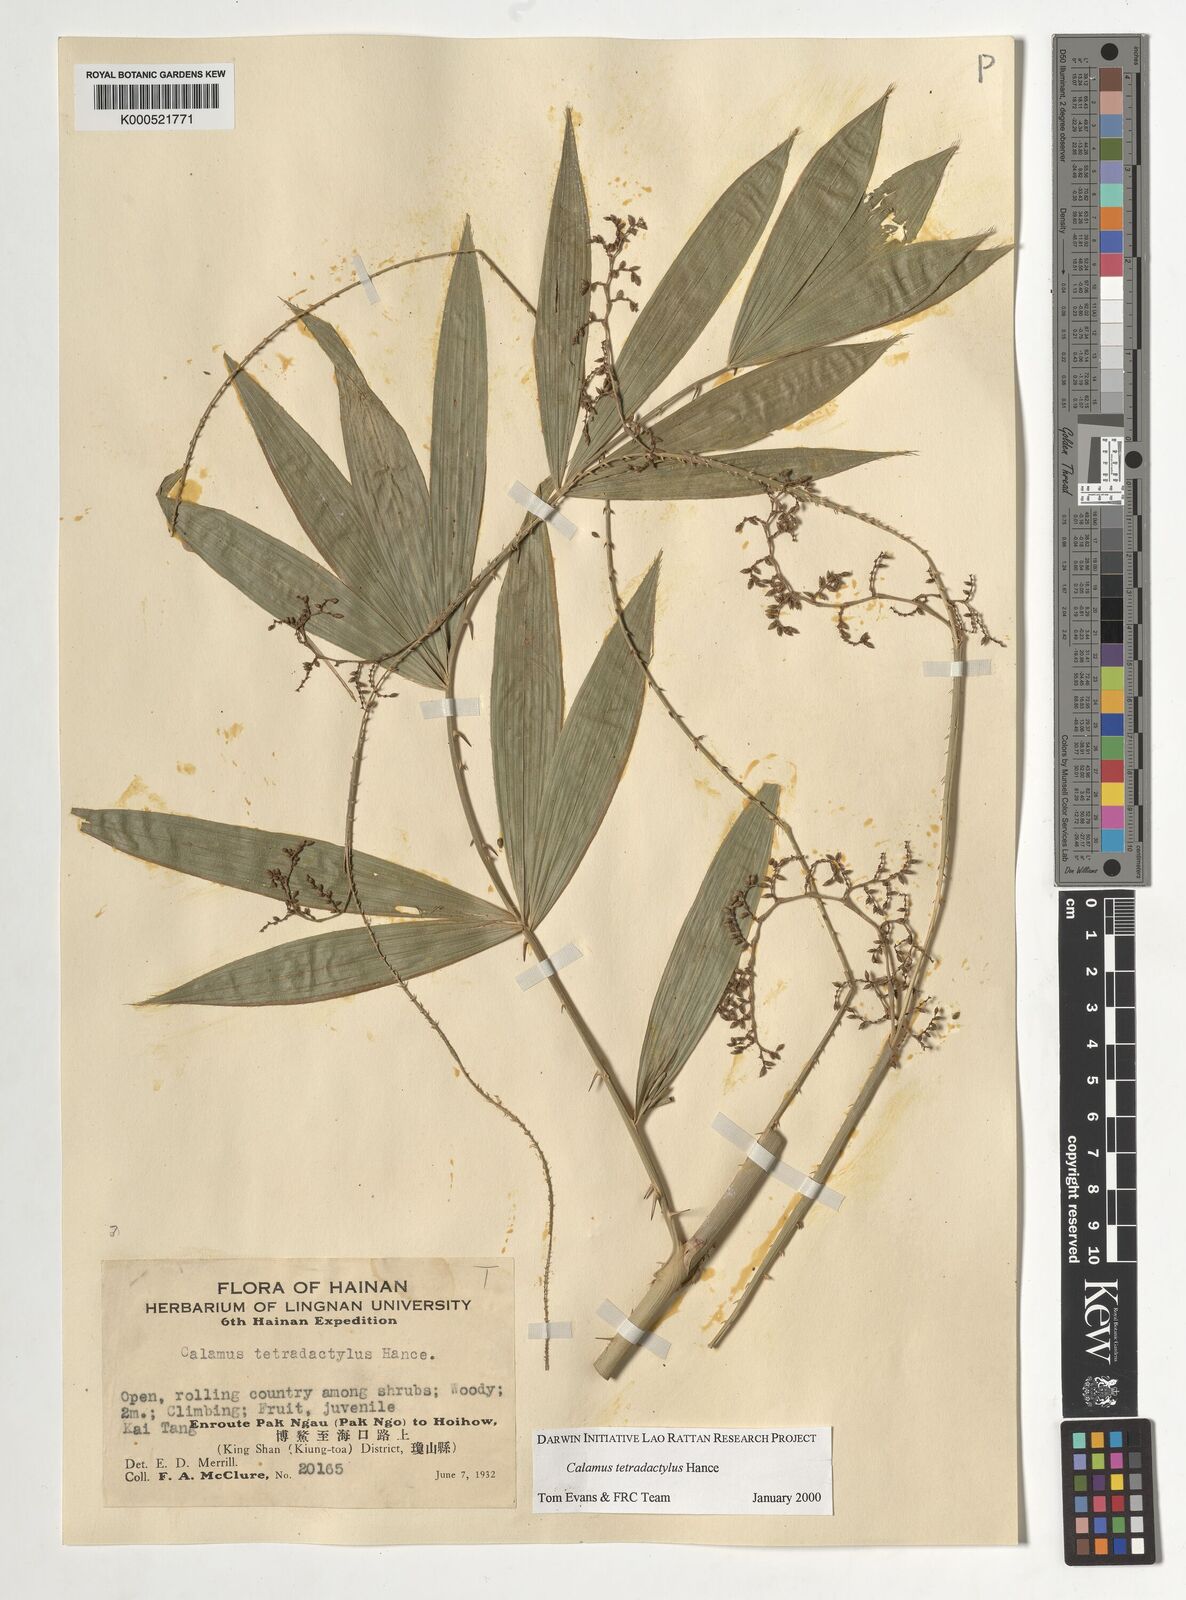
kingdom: Plantae
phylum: Tracheophyta
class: Liliopsida
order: Arecales
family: Arecaceae
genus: Calamus
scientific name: Calamus tetradactylus
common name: White rattan
